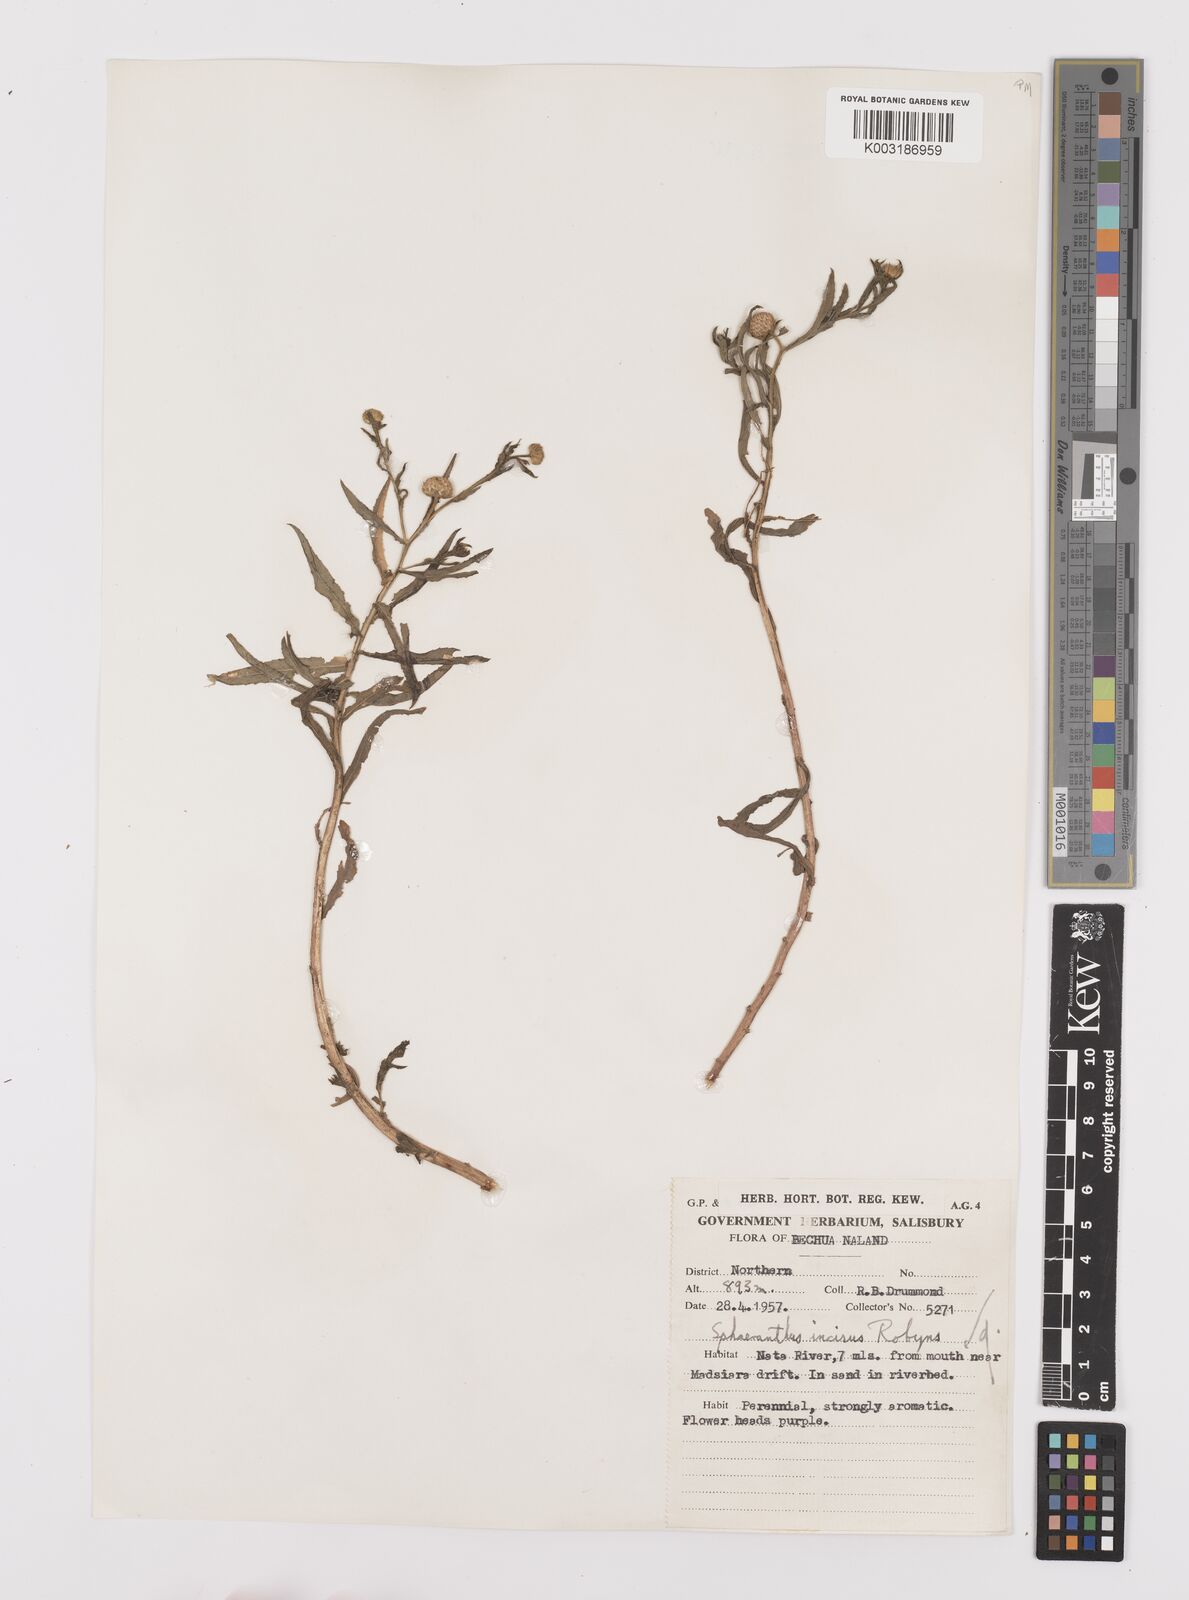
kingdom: Plantae
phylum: Tracheophyta
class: Magnoliopsida
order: Asterales
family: Asteraceae
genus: Sphaeranthus
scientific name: Sphaeranthus peduncularis
